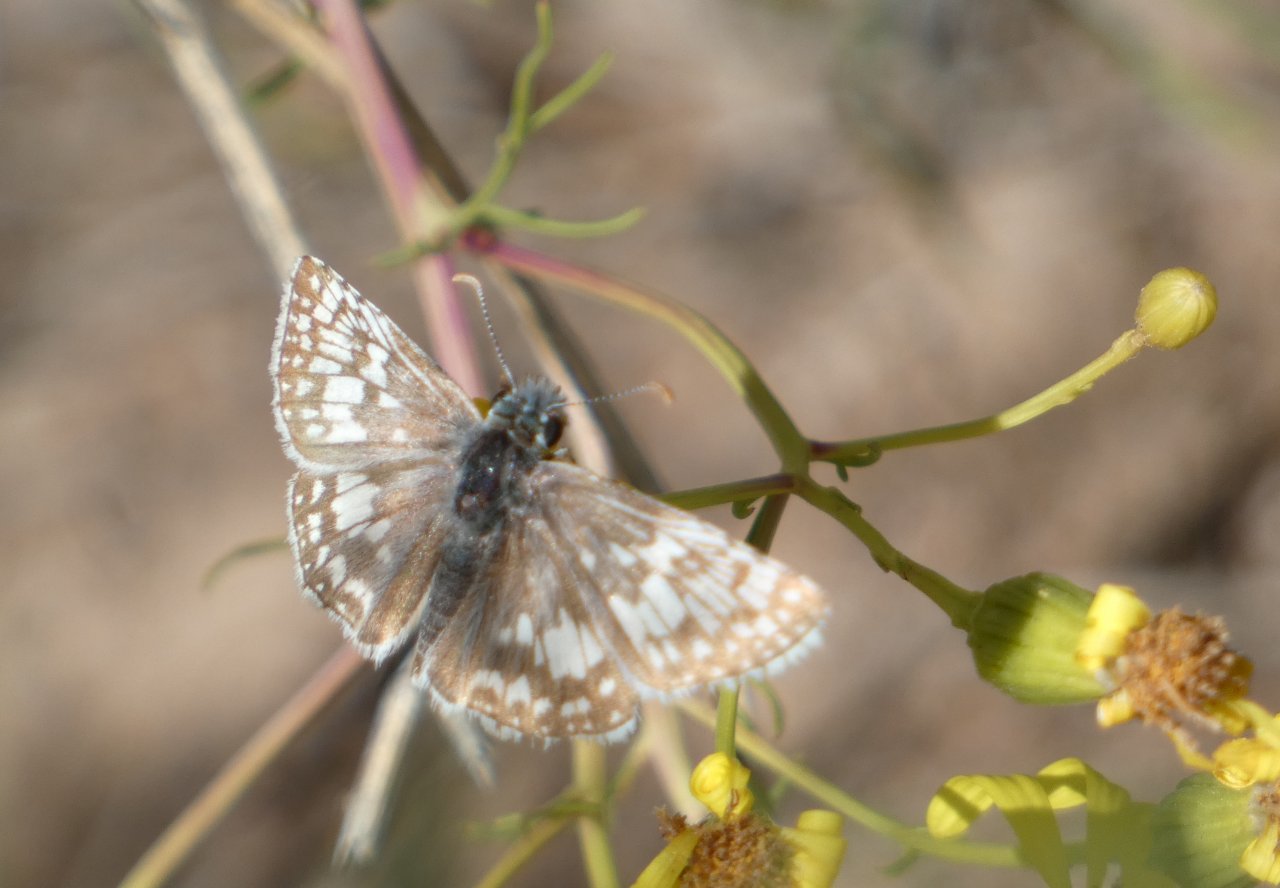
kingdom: Animalia
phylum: Arthropoda
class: Insecta
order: Lepidoptera
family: Hesperiidae
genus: Pyrgus
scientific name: Pyrgus communis
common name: Common Checkered-Skipper
